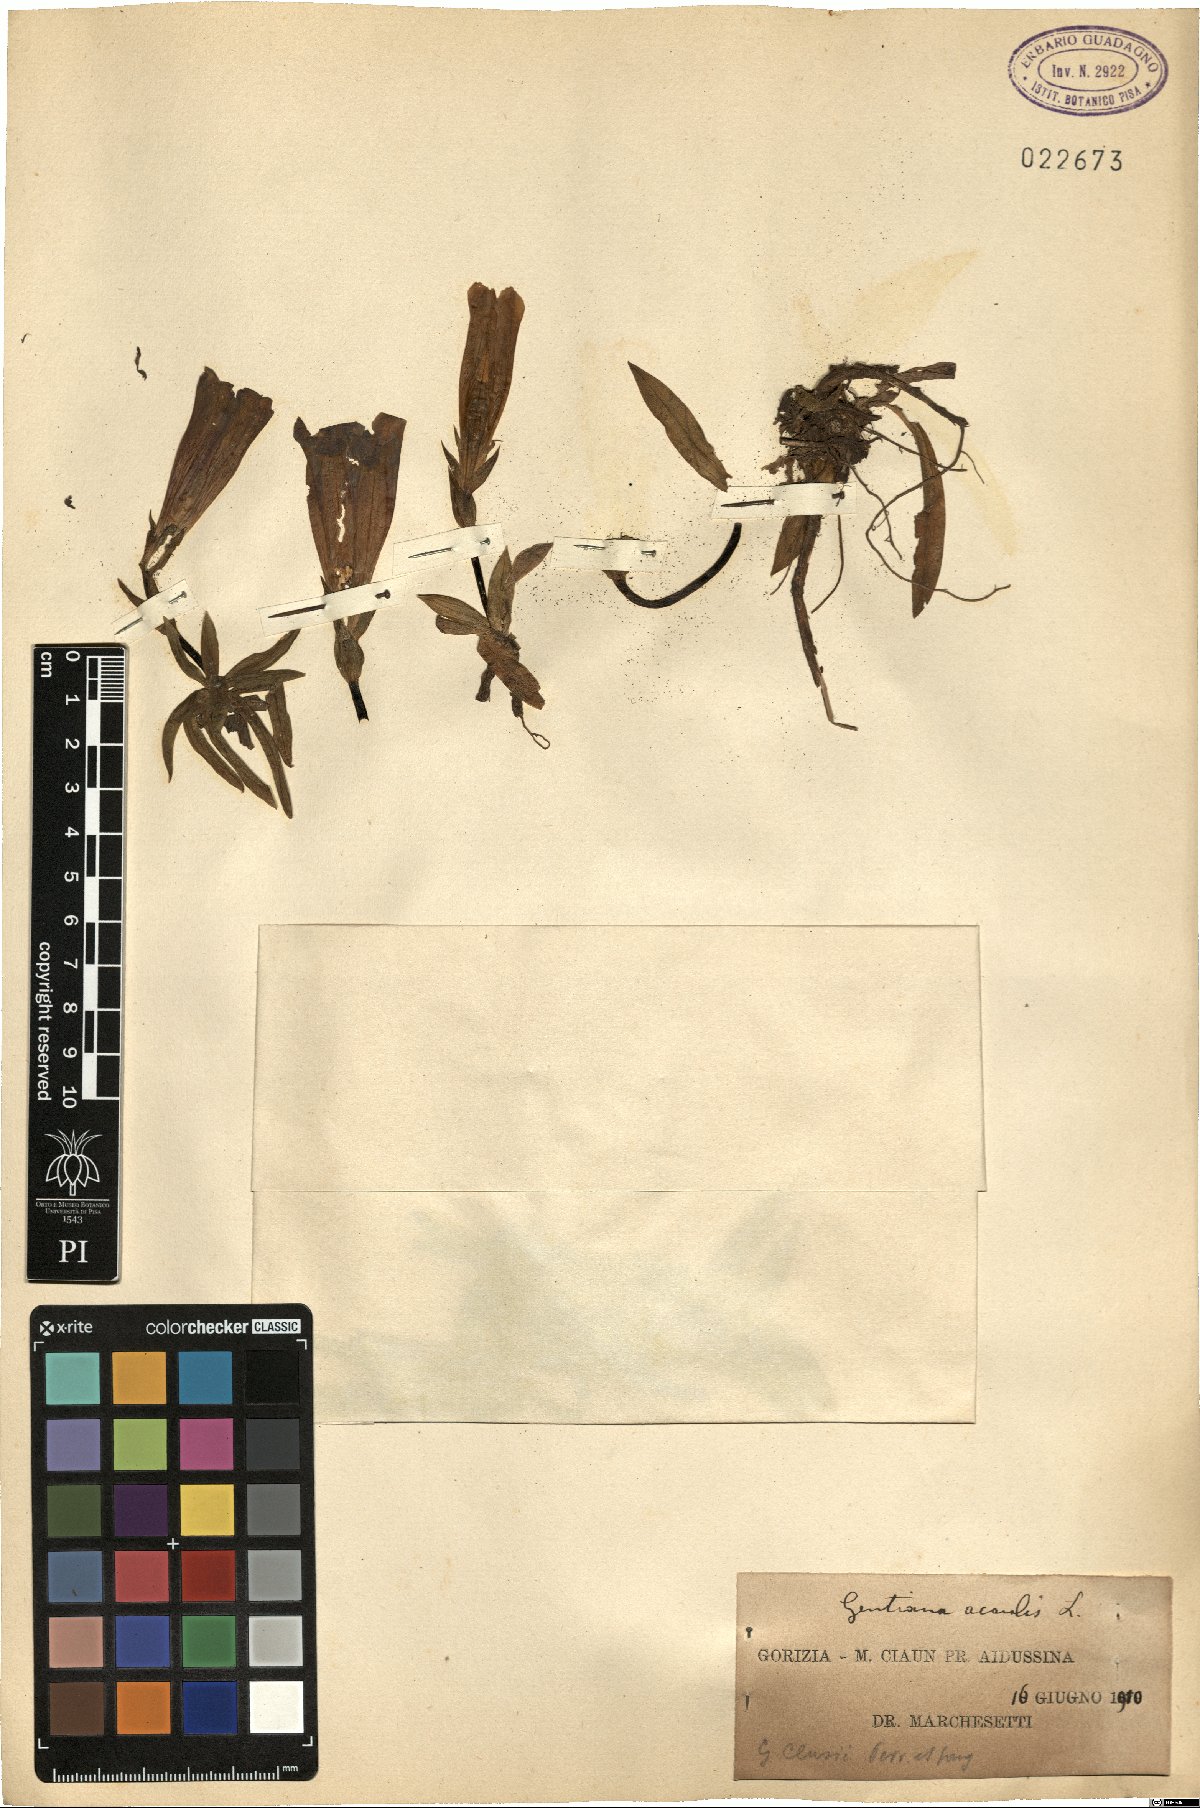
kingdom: Plantae
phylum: Tracheophyta
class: Magnoliopsida
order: Gentianales
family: Gentianaceae
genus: Gentiana
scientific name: Gentiana acaulis
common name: Trumpet gentian
